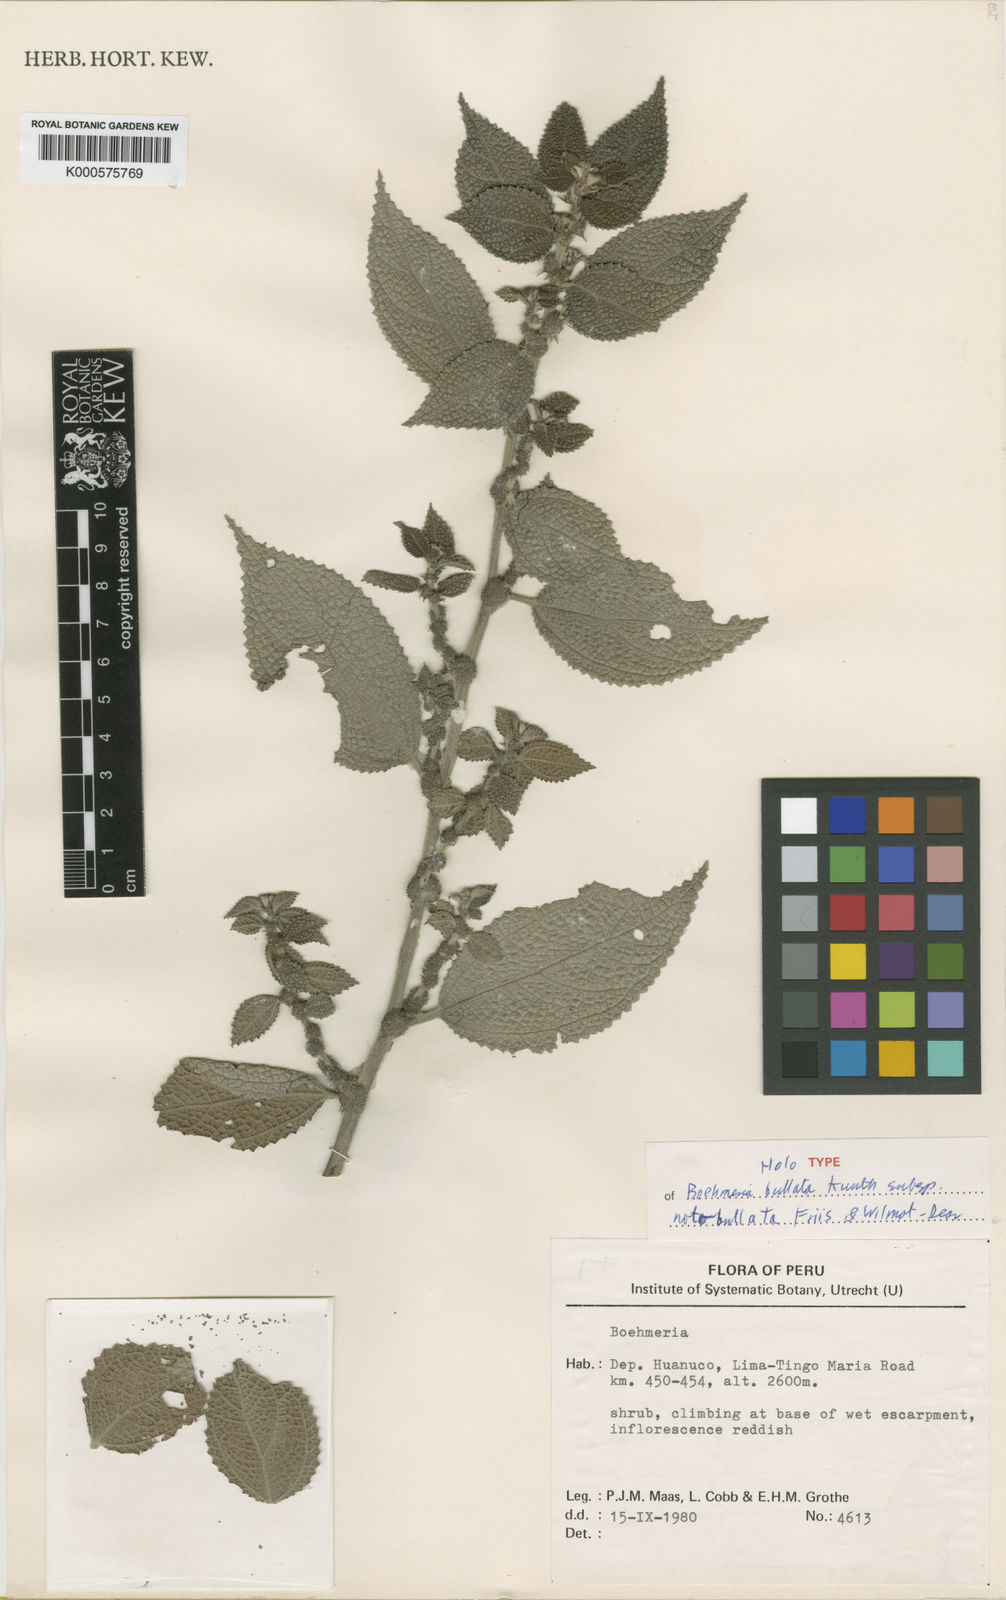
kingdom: Plantae
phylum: Tracheophyta
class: Magnoliopsida
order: Rosales
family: Urticaceae
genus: Boehmeria
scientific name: Boehmeria bullata
